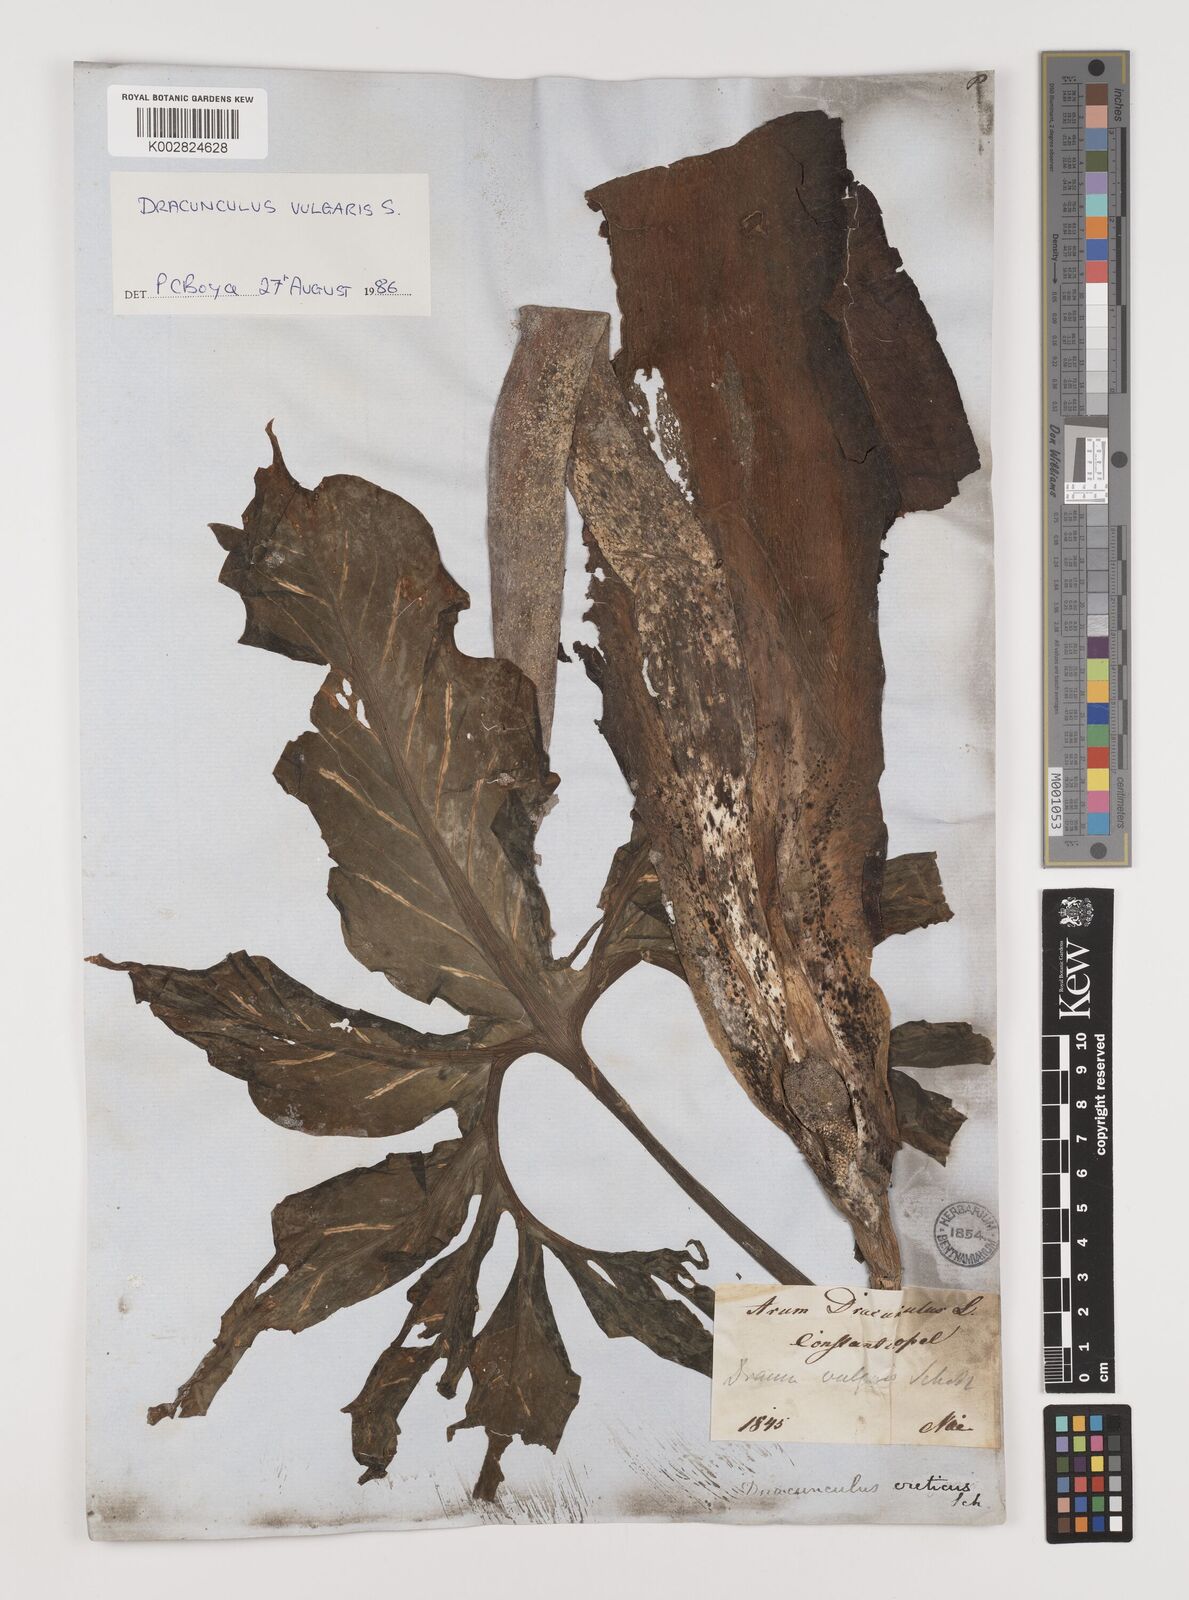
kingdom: Plantae
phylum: Tracheophyta
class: Liliopsida
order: Alismatales
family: Araceae
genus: Dracunculus
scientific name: Dracunculus vulgaris
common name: Dragon arum
